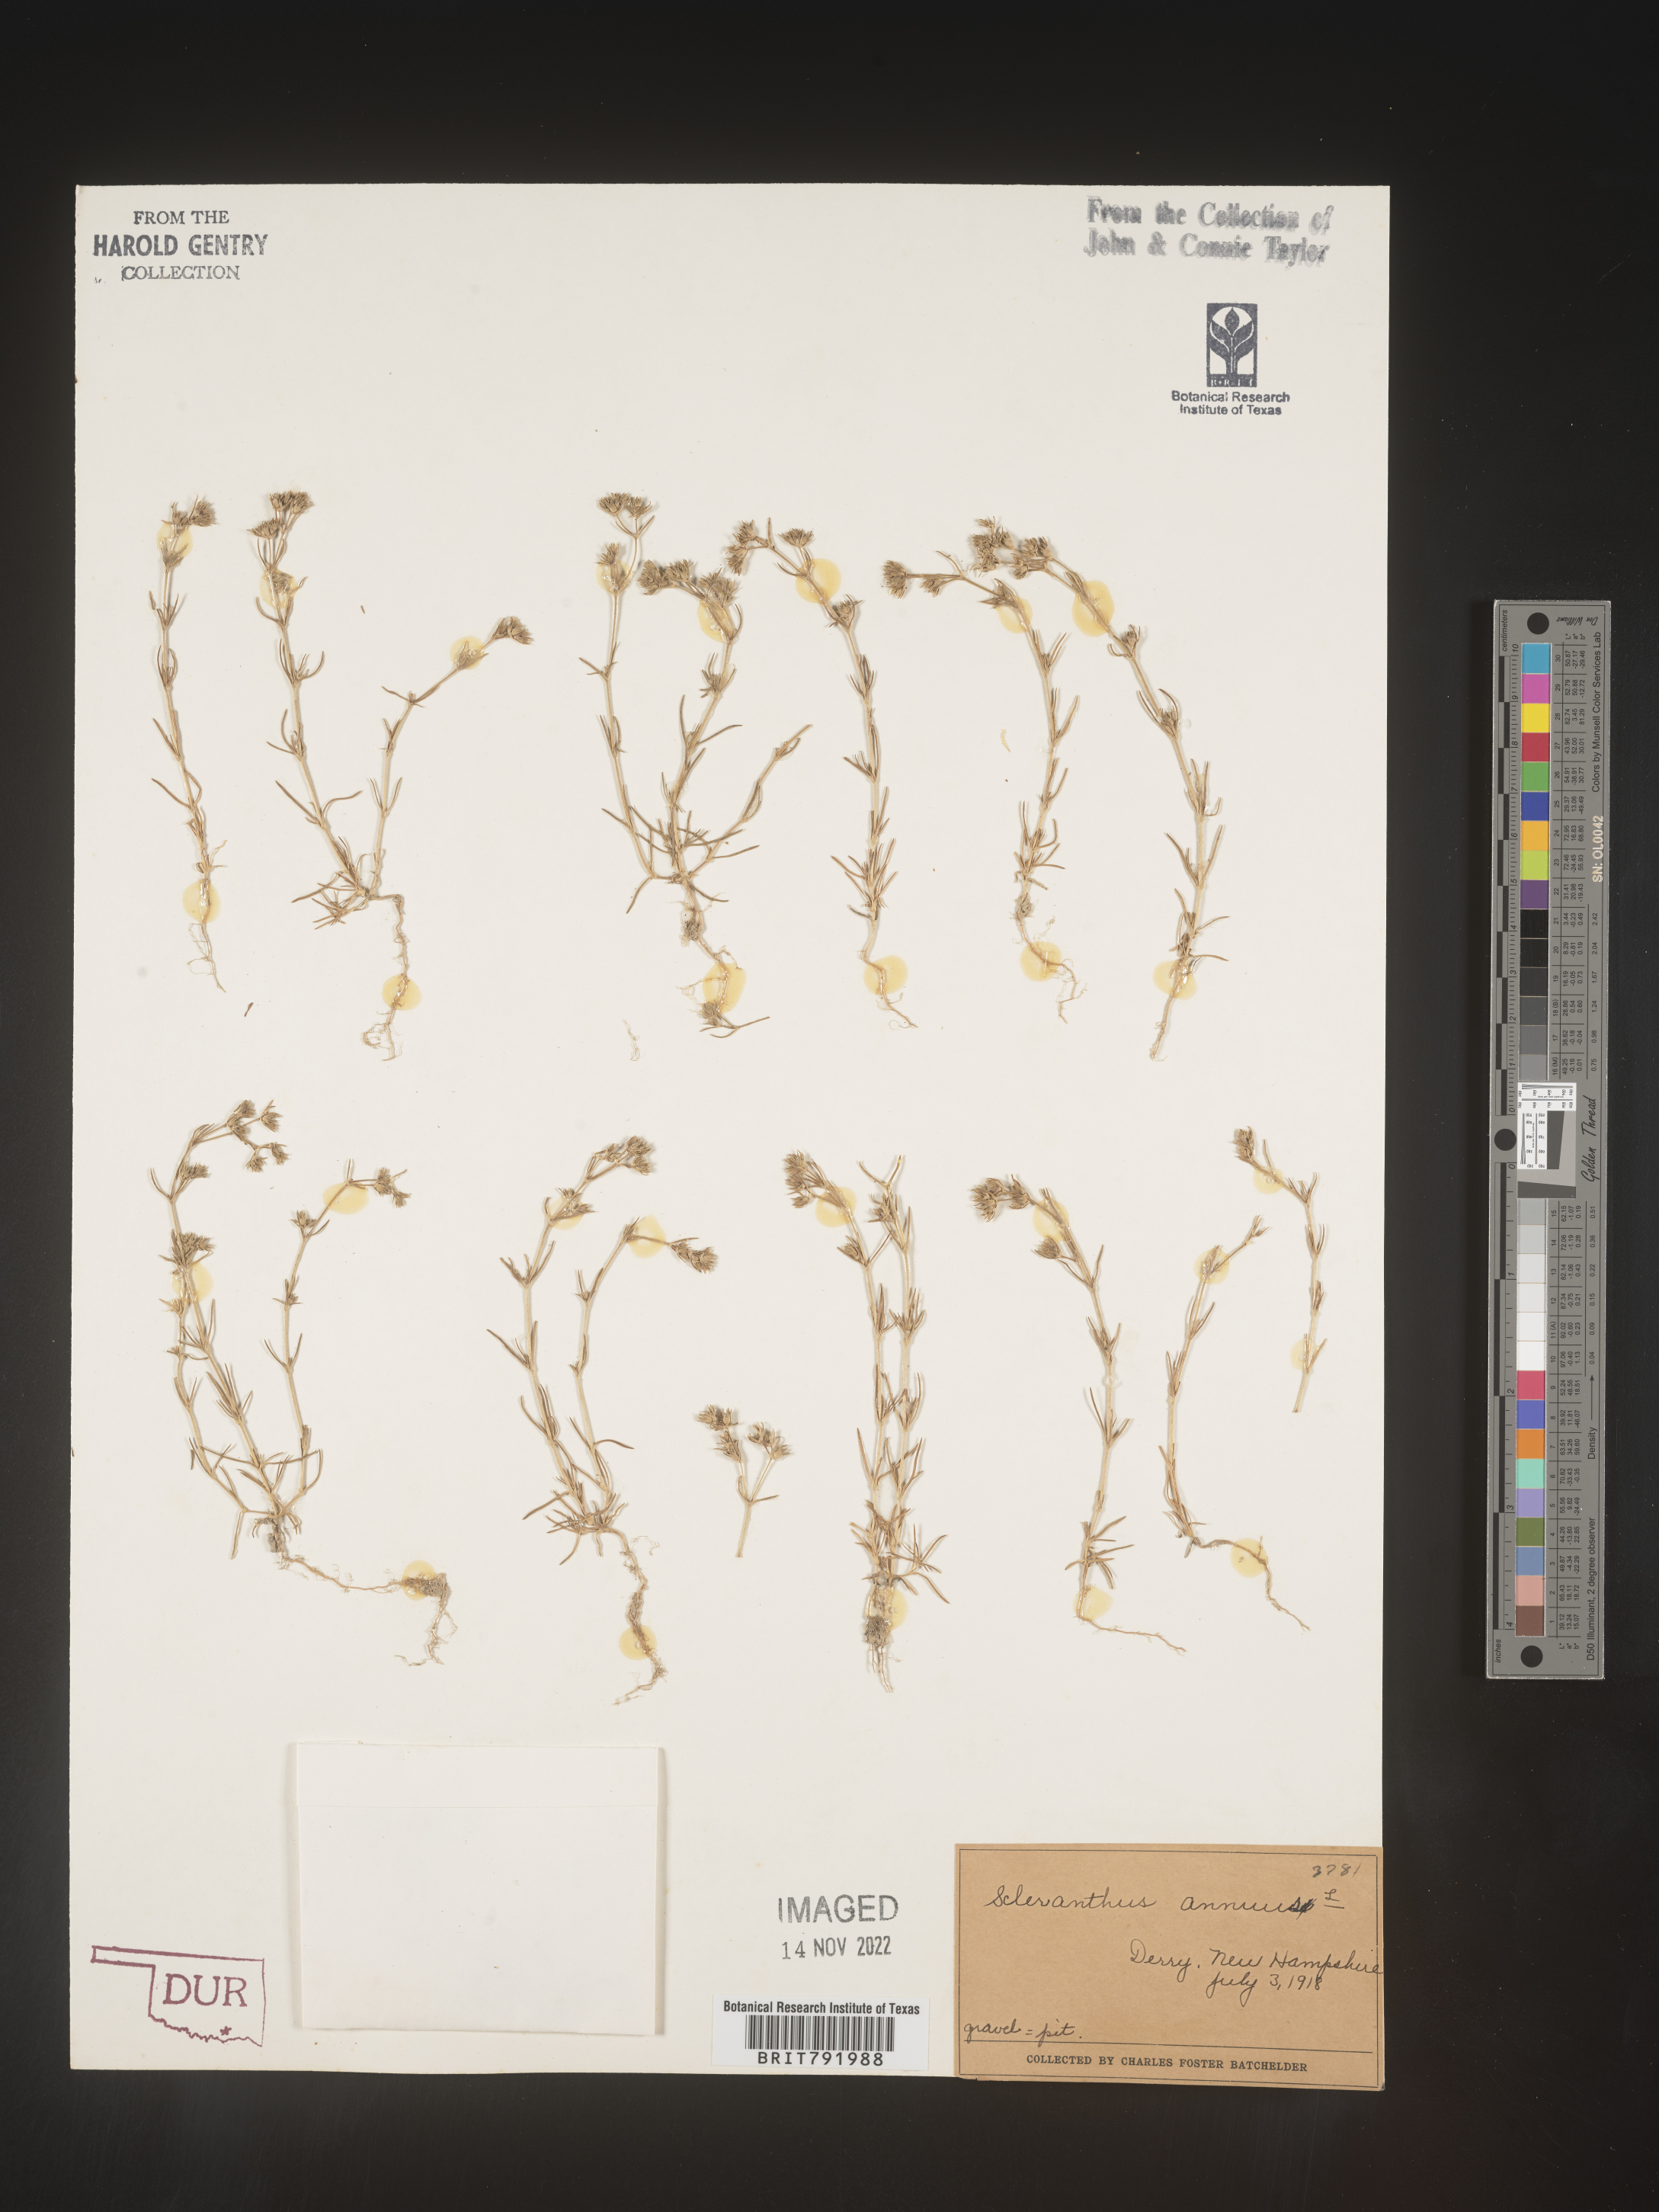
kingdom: Plantae
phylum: Tracheophyta
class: Magnoliopsida
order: Caryophyllales
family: Caryophyllaceae
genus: Scleranthus
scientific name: Scleranthus
